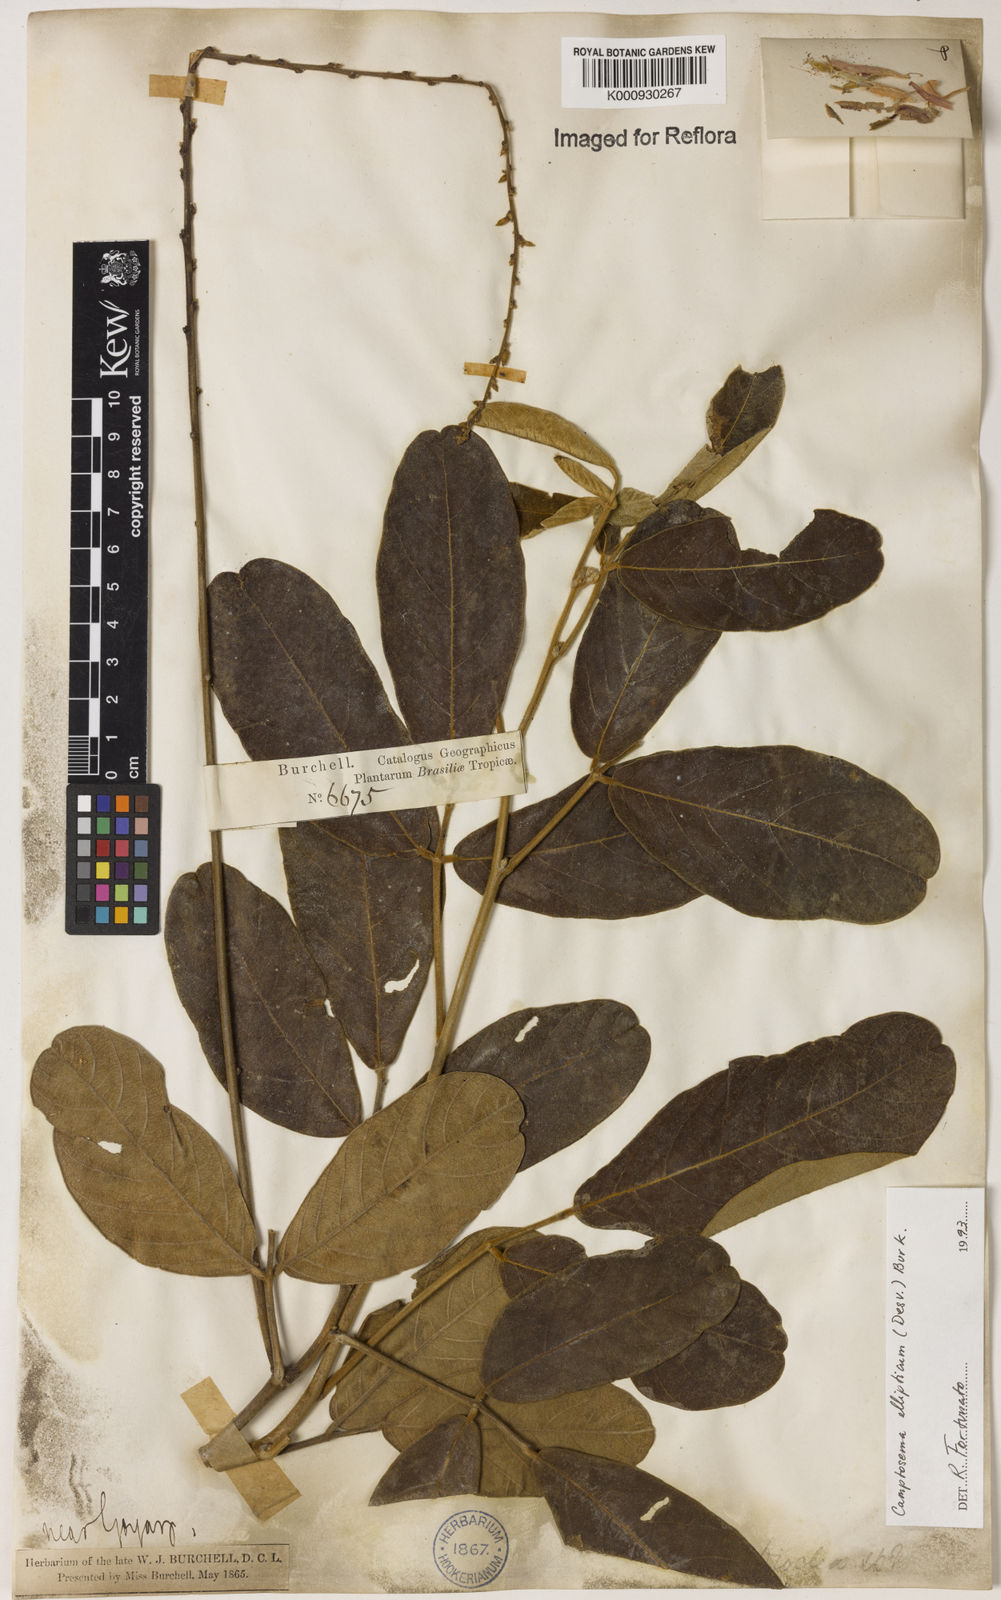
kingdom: Plantae
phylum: Tracheophyta
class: Magnoliopsida
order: Fabales
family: Fabaceae
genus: Camptosema
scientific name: Camptosema
